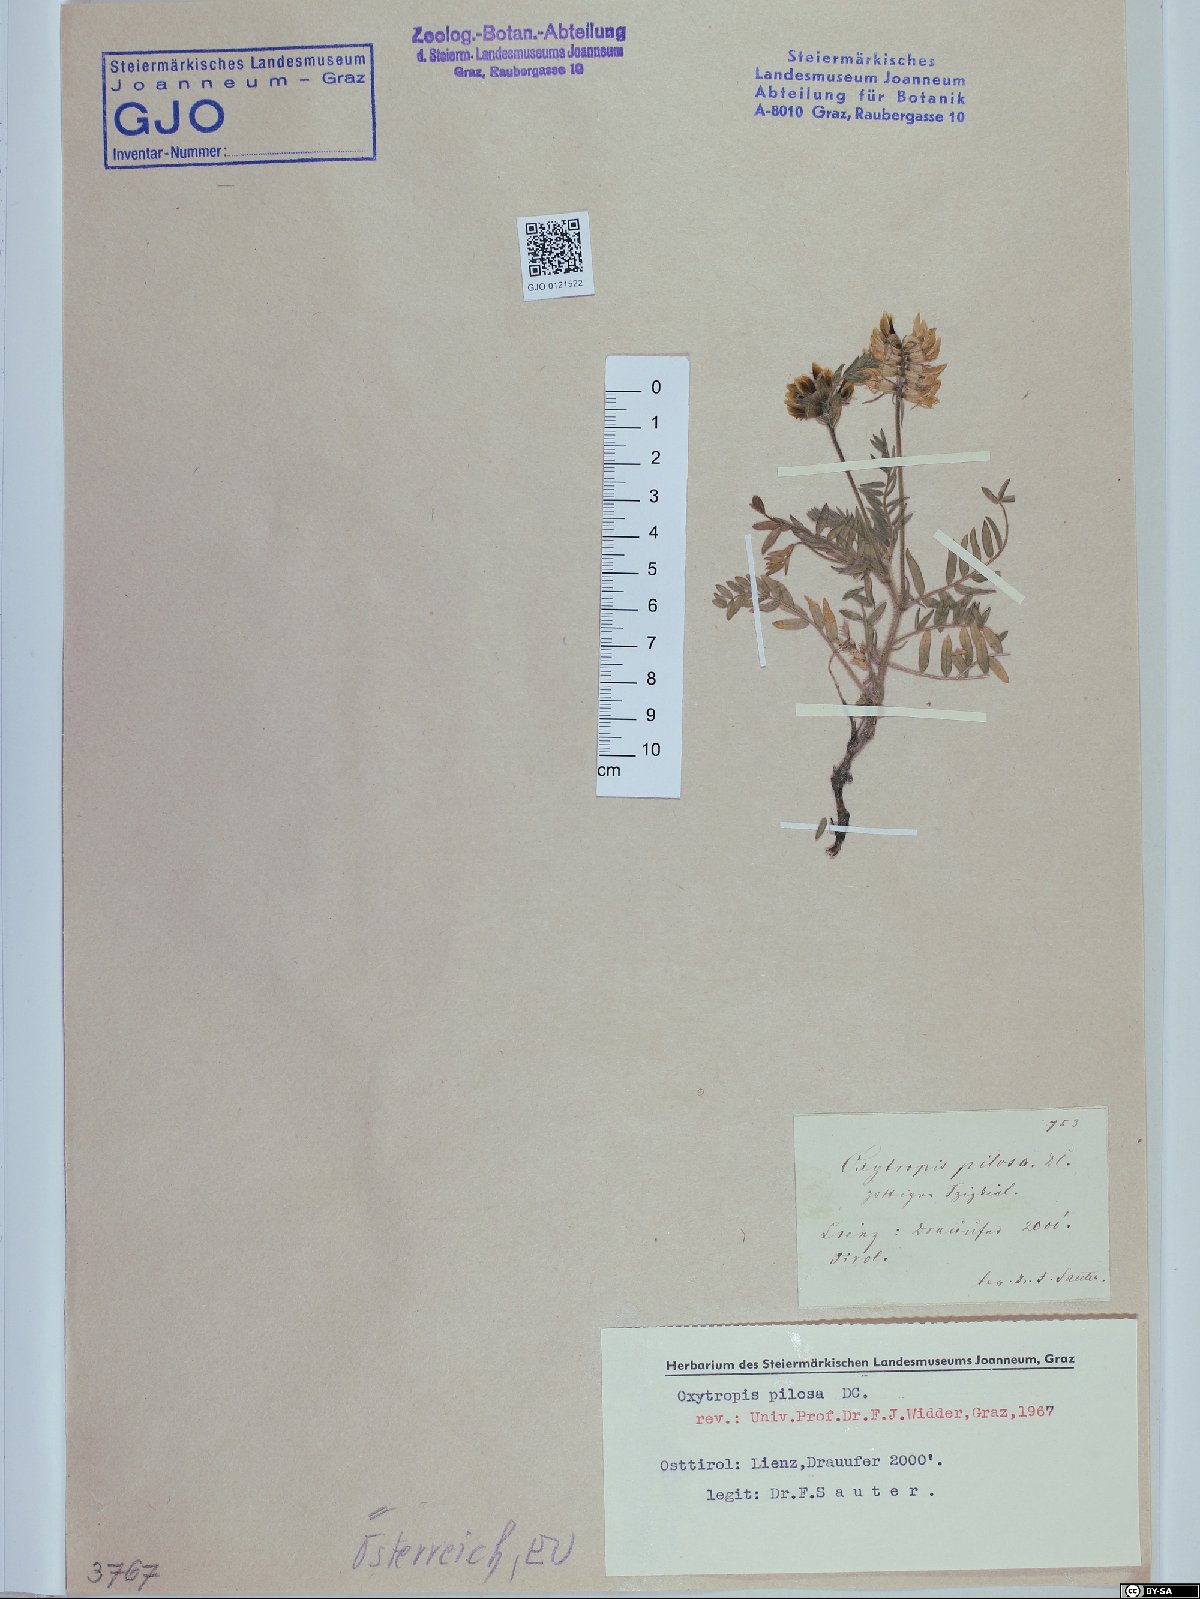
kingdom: Plantae
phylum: Tracheophyta
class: Magnoliopsida
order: Fabales
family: Fabaceae
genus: Oxytropis
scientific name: Oxytropis pilosa
